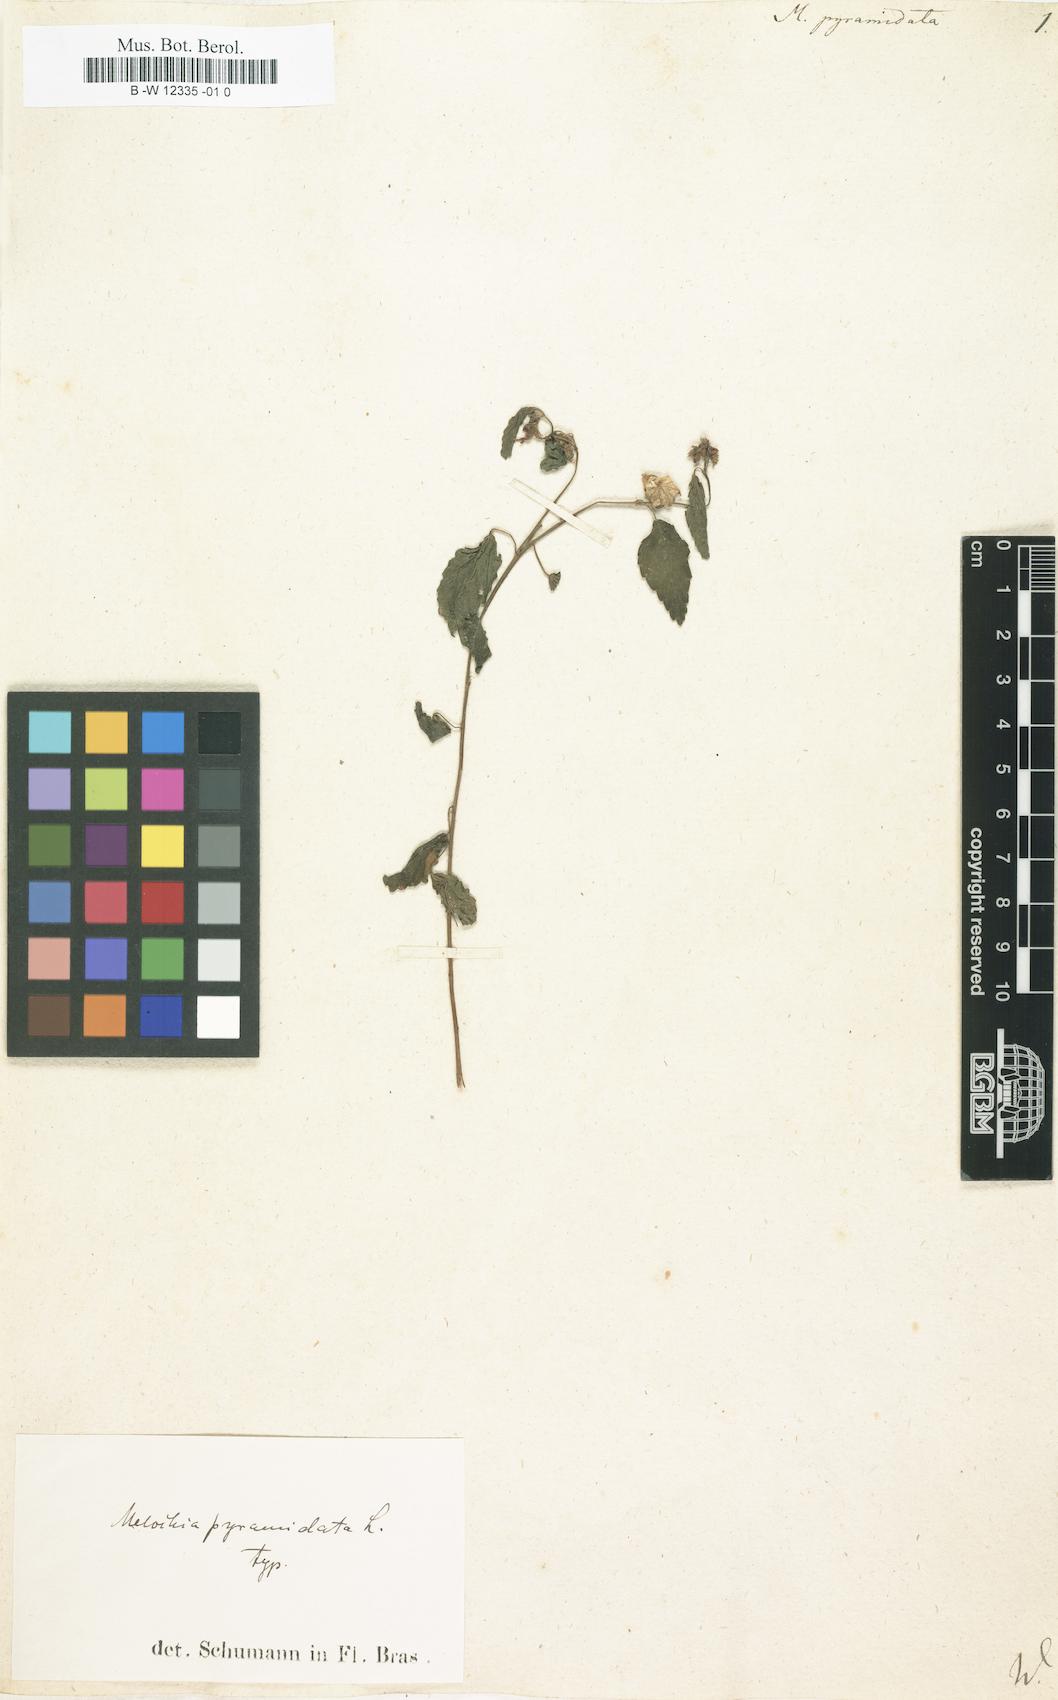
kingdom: Plantae
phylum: Tracheophyta
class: Magnoliopsida
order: Malvales
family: Malvaceae
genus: Melochia
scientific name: Melochia pyramidata
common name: Pyramidflower
